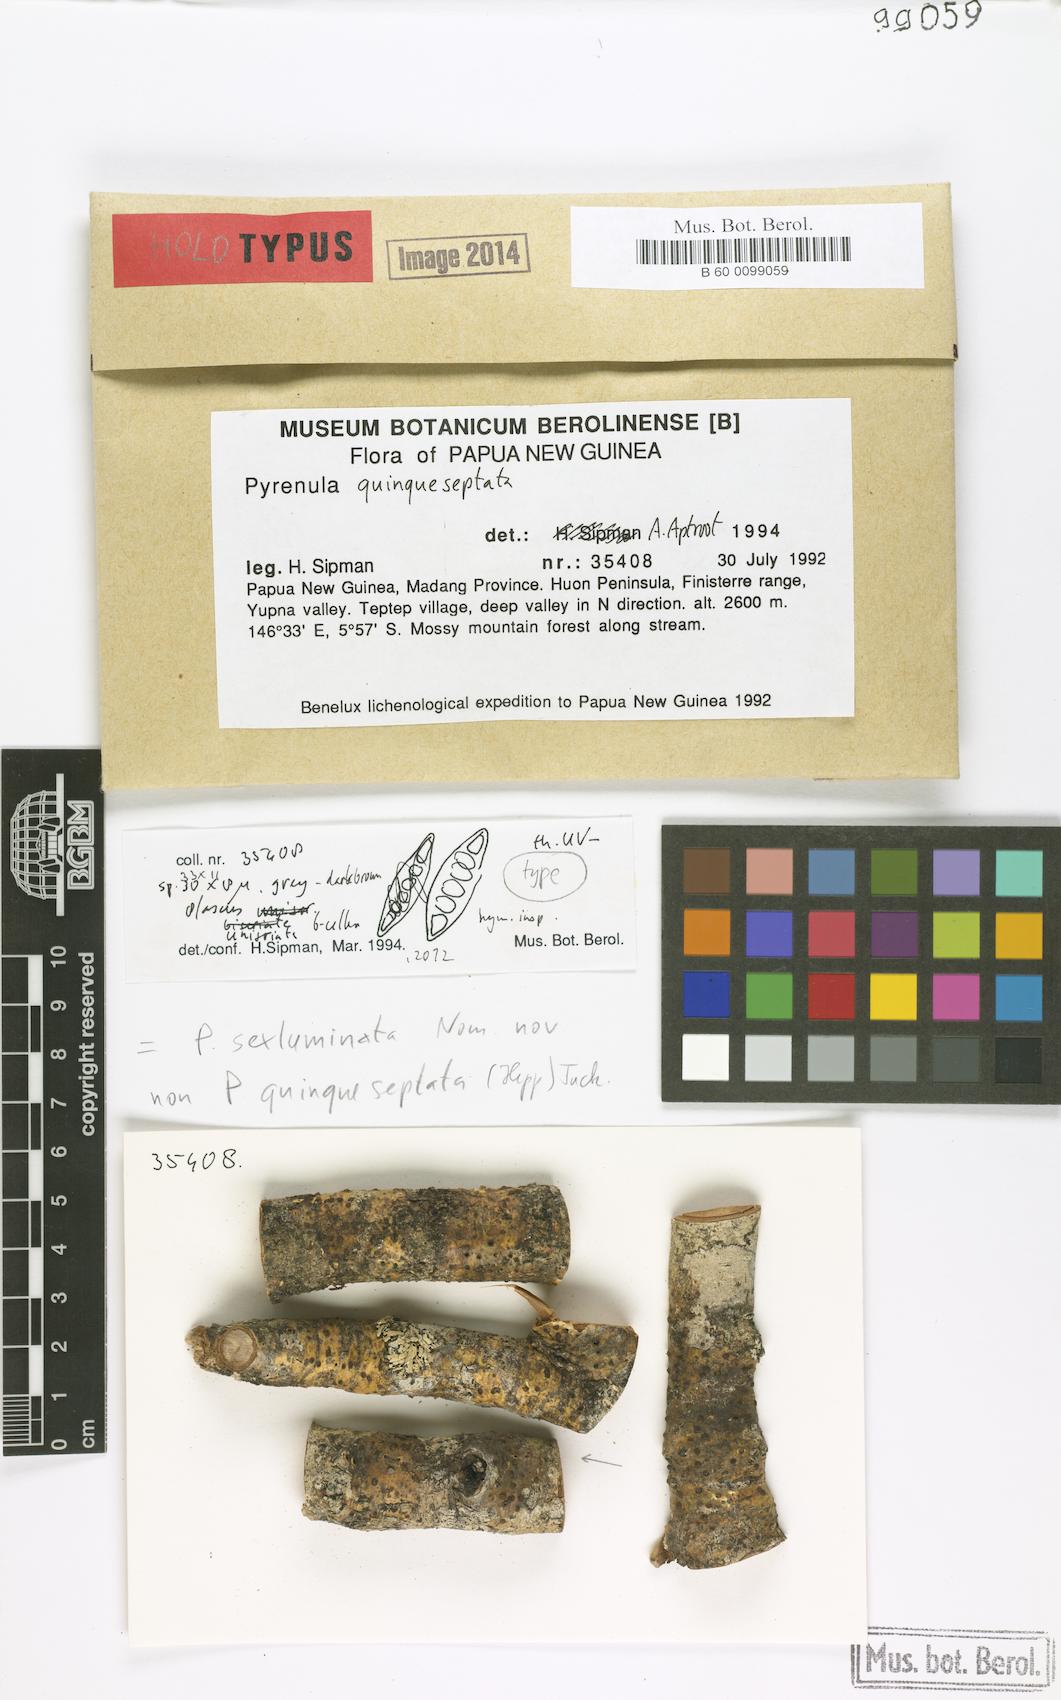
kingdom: Fungi
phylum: Ascomycota
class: Eurotiomycetes
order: Pyrenulales
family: Pyrenulaceae
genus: Pyrenula
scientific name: Pyrenula sexluminata
